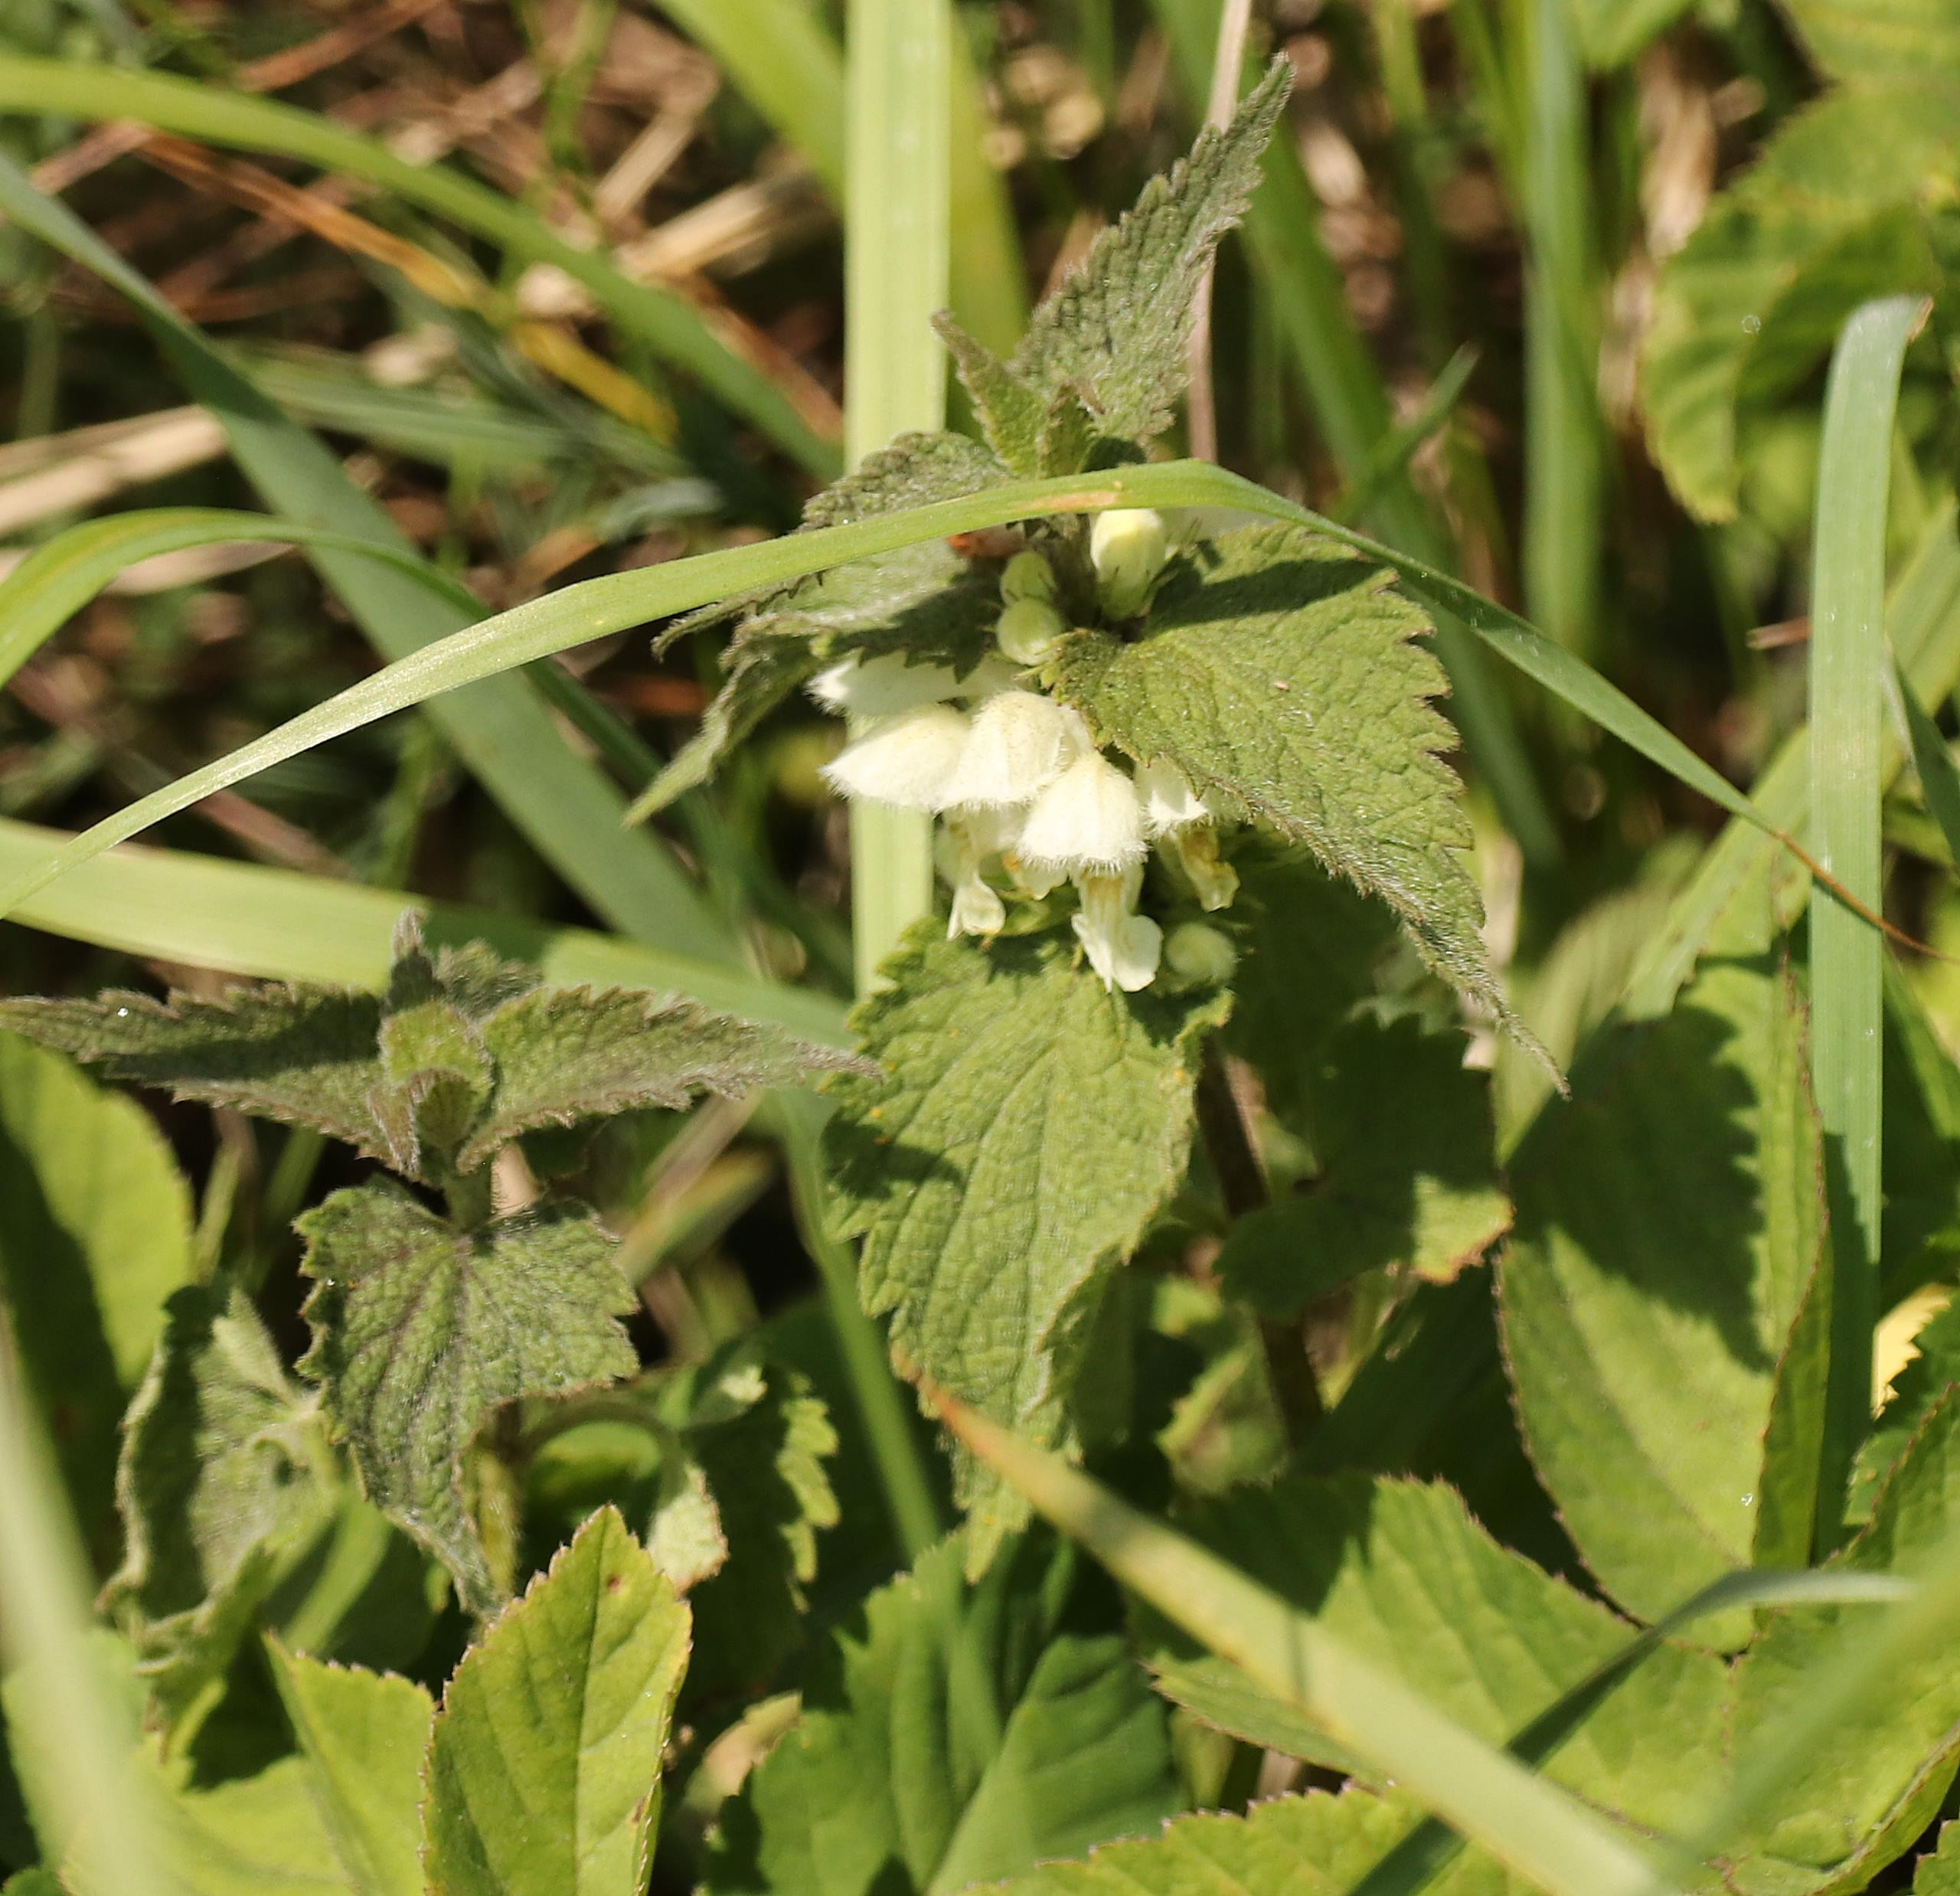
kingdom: Plantae
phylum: Tracheophyta
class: Magnoliopsida
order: Lamiales
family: Lamiaceae
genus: Lamium
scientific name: Lamium album
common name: Døvnælde
